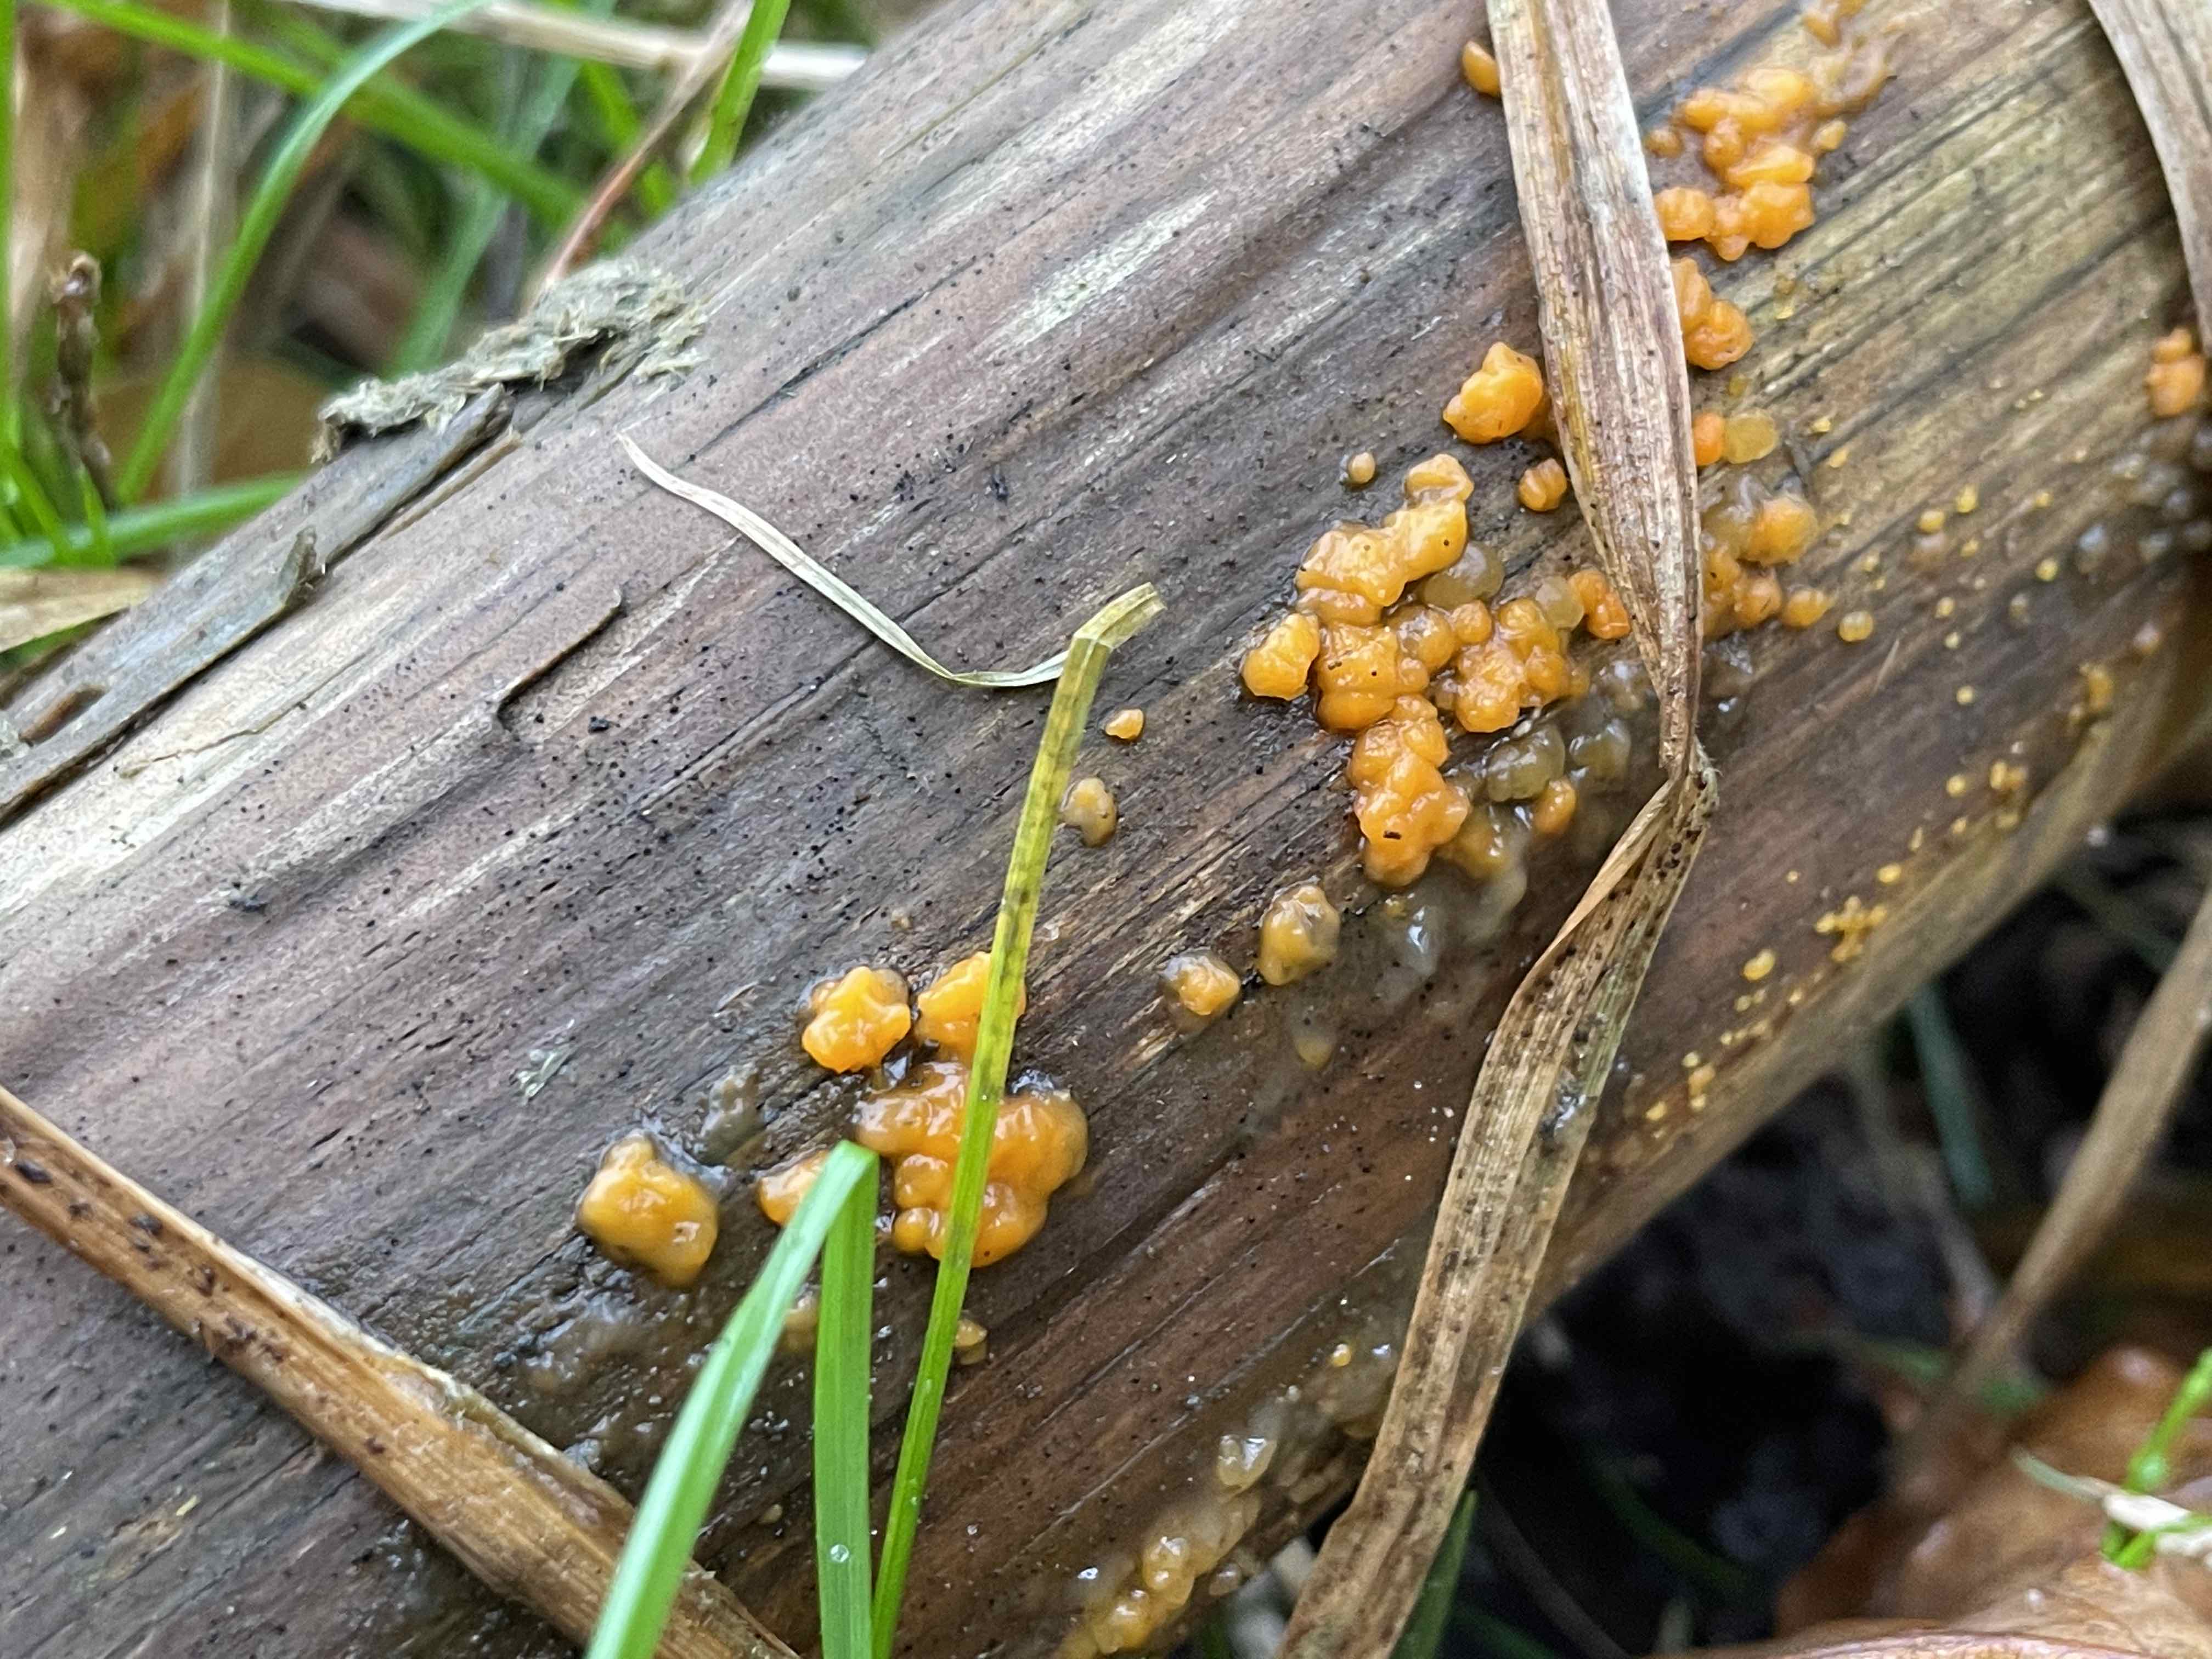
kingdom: Fungi
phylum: Basidiomycota
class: Dacrymycetes
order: Dacrymycetales
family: Dacrymycetaceae
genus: Dacrymyces
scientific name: Dacrymyces stillatus
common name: almindelig tåresvamp
